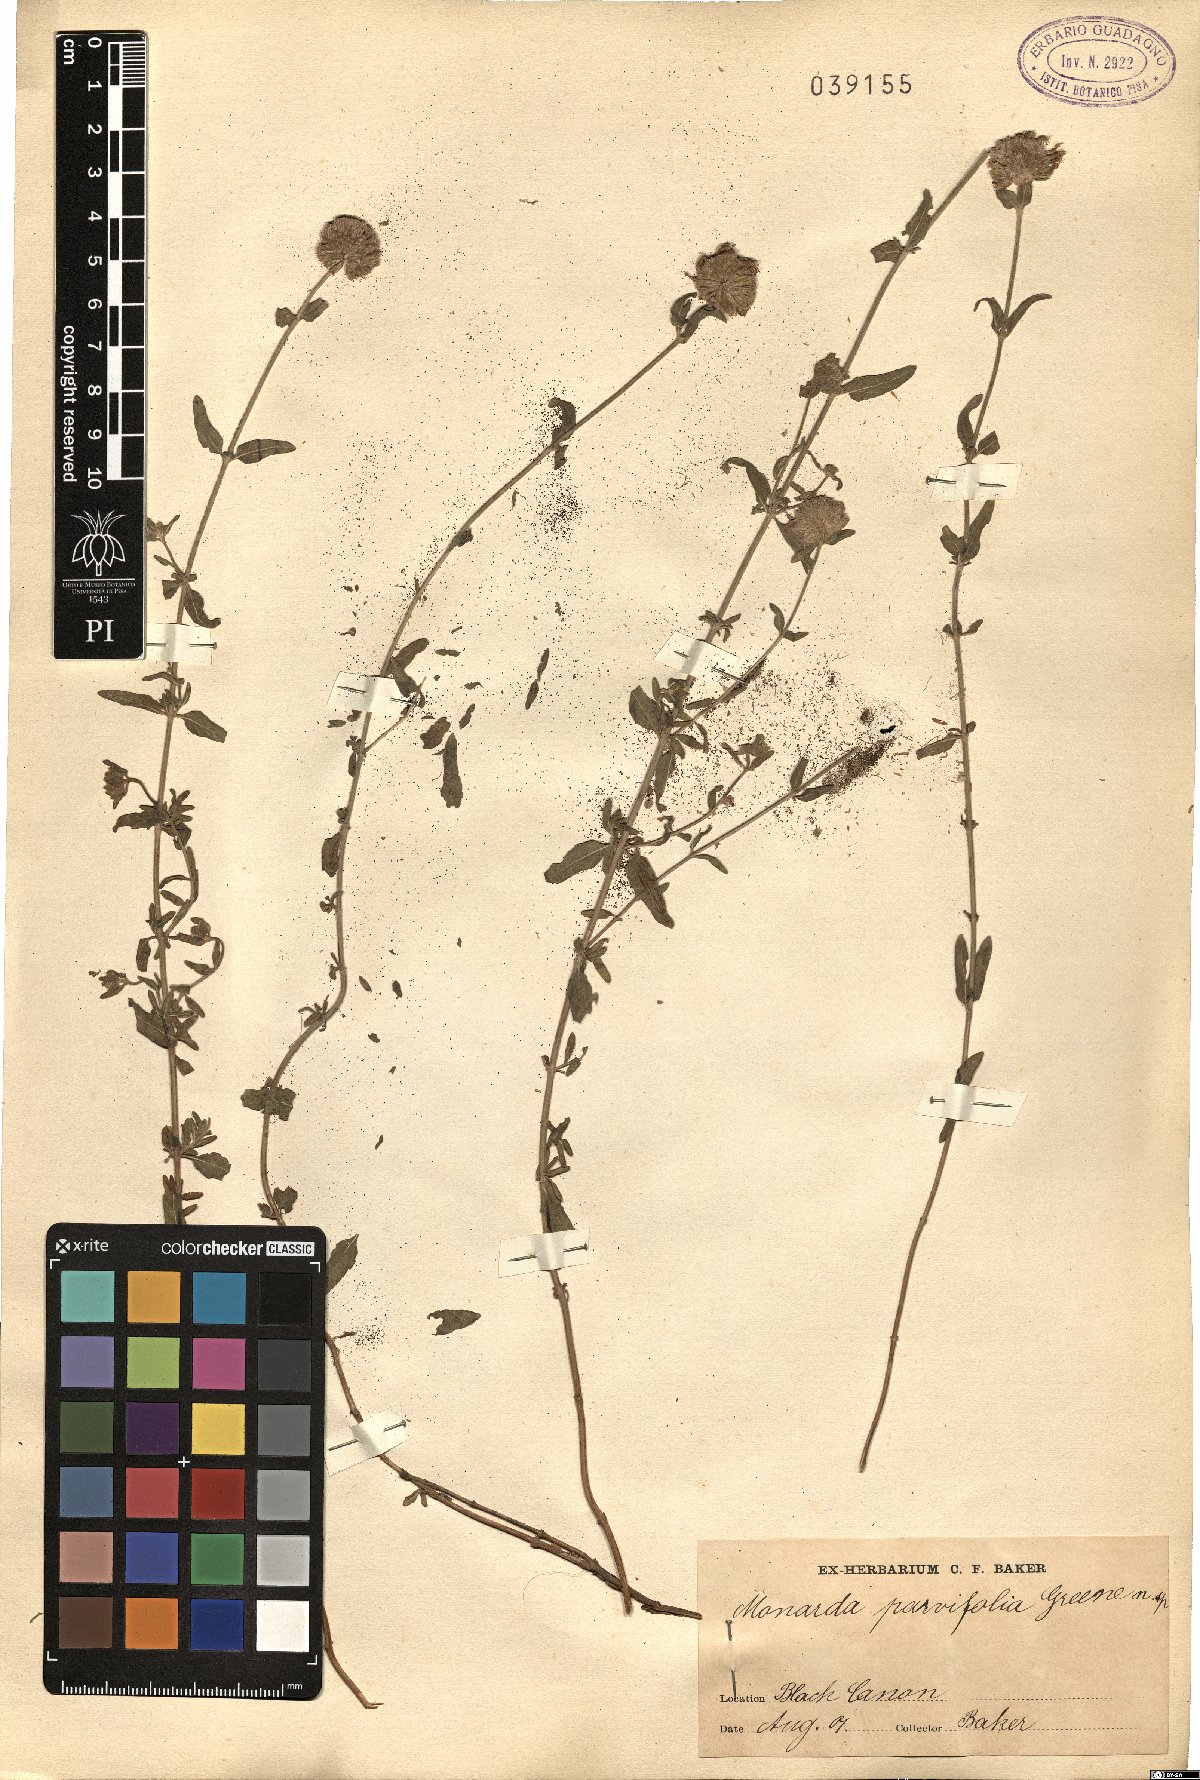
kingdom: Plantae
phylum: Tracheophyta
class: Magnoliopsida
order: Lamiales
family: Lamiaceae
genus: Monarda
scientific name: Monarda
